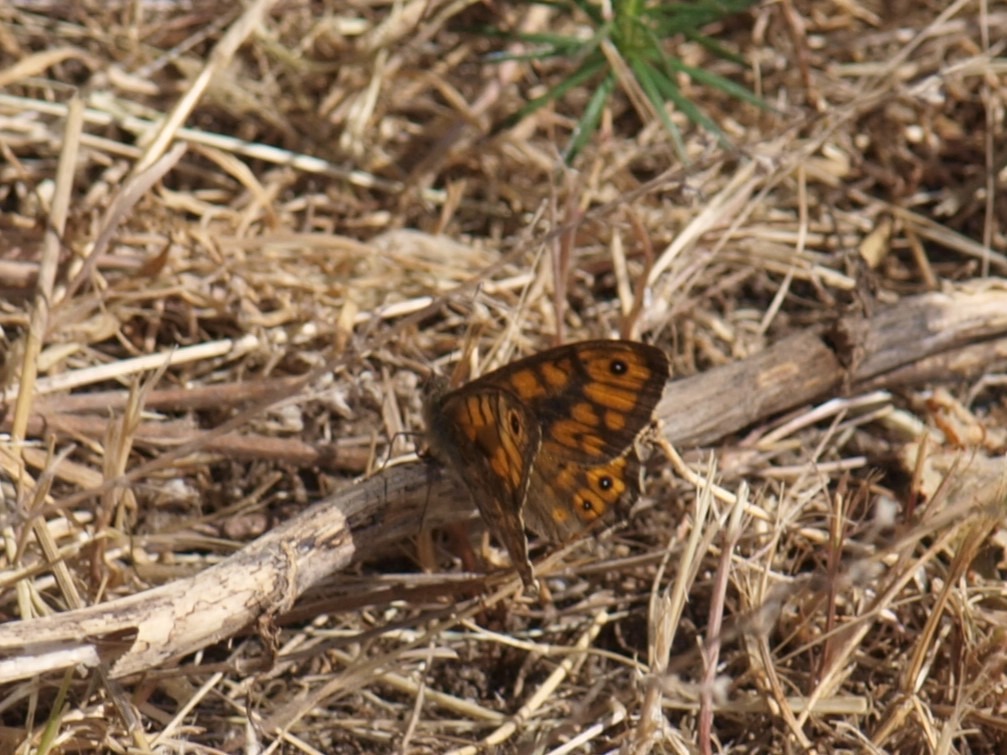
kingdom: Animalia
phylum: Arthropoda
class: Insecta
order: Lepidoptera
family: Nymphalidae
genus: Pararge
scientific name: Pararge Lasiommata megera
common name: Vejrandøje
